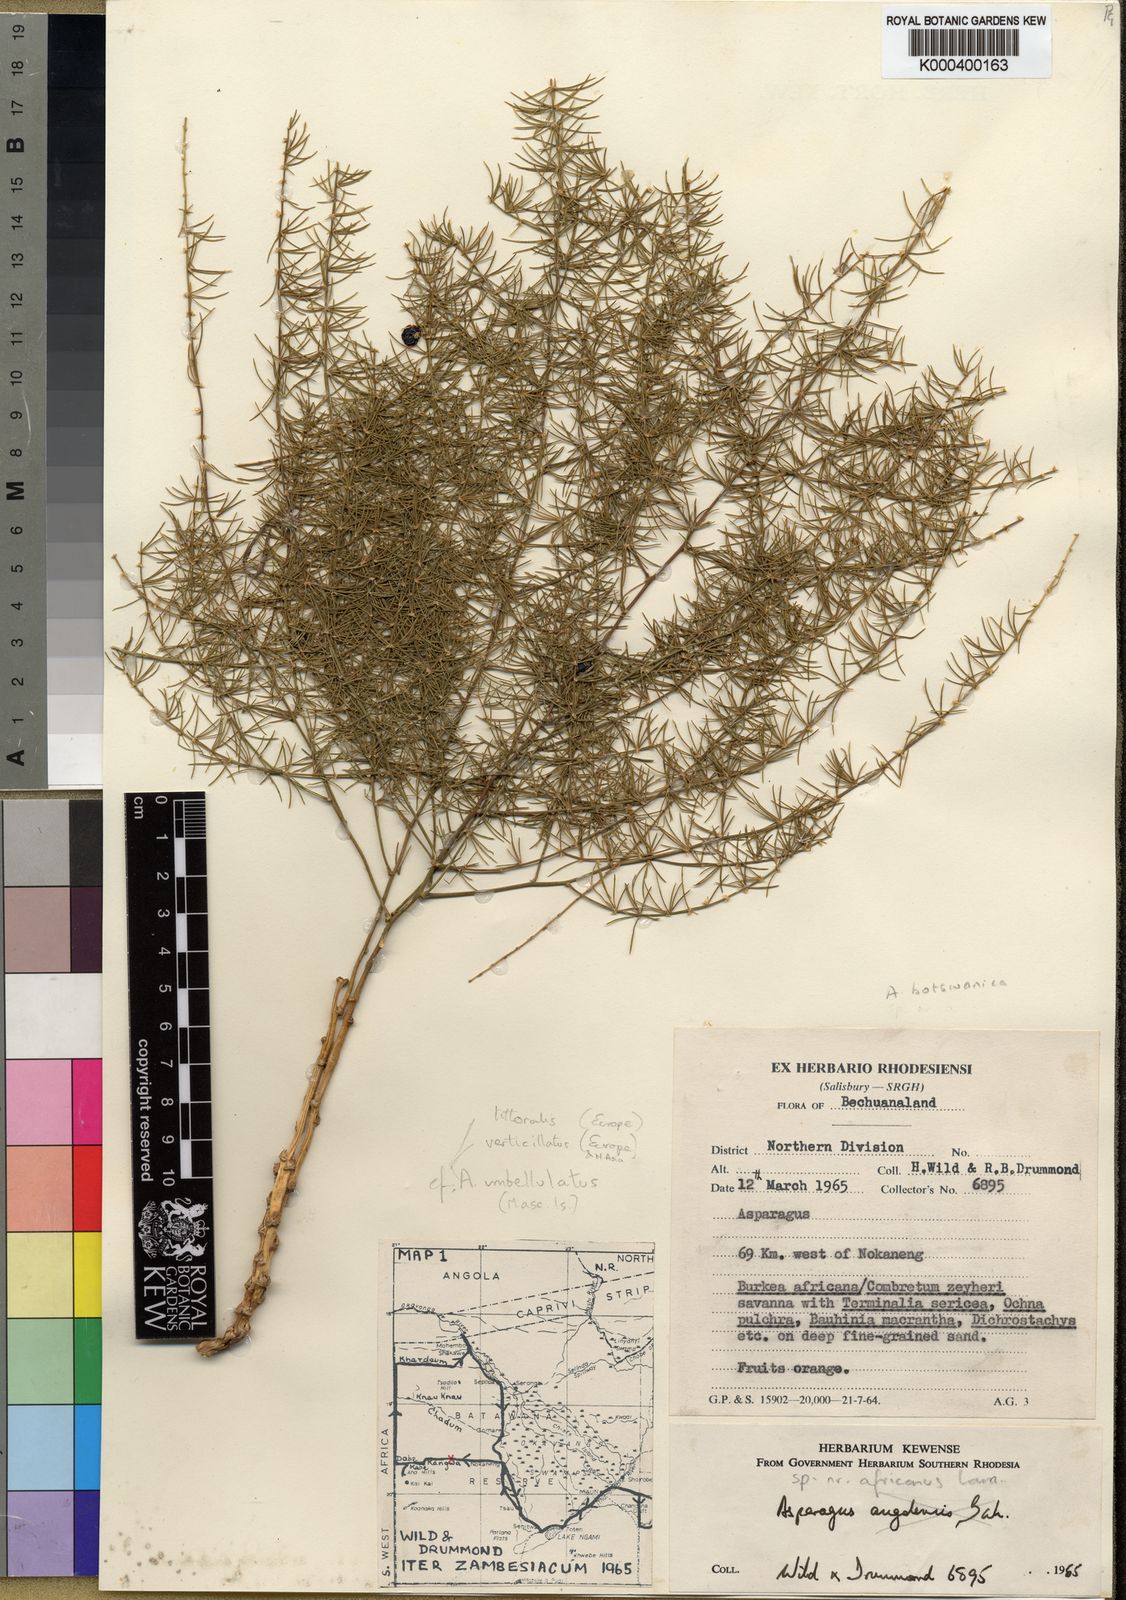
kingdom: Plantae
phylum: Tracheophyta
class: Liliopsida
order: Asparagales
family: Asparagaceae
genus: Asparagus
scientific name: Asparagus botswanicus
